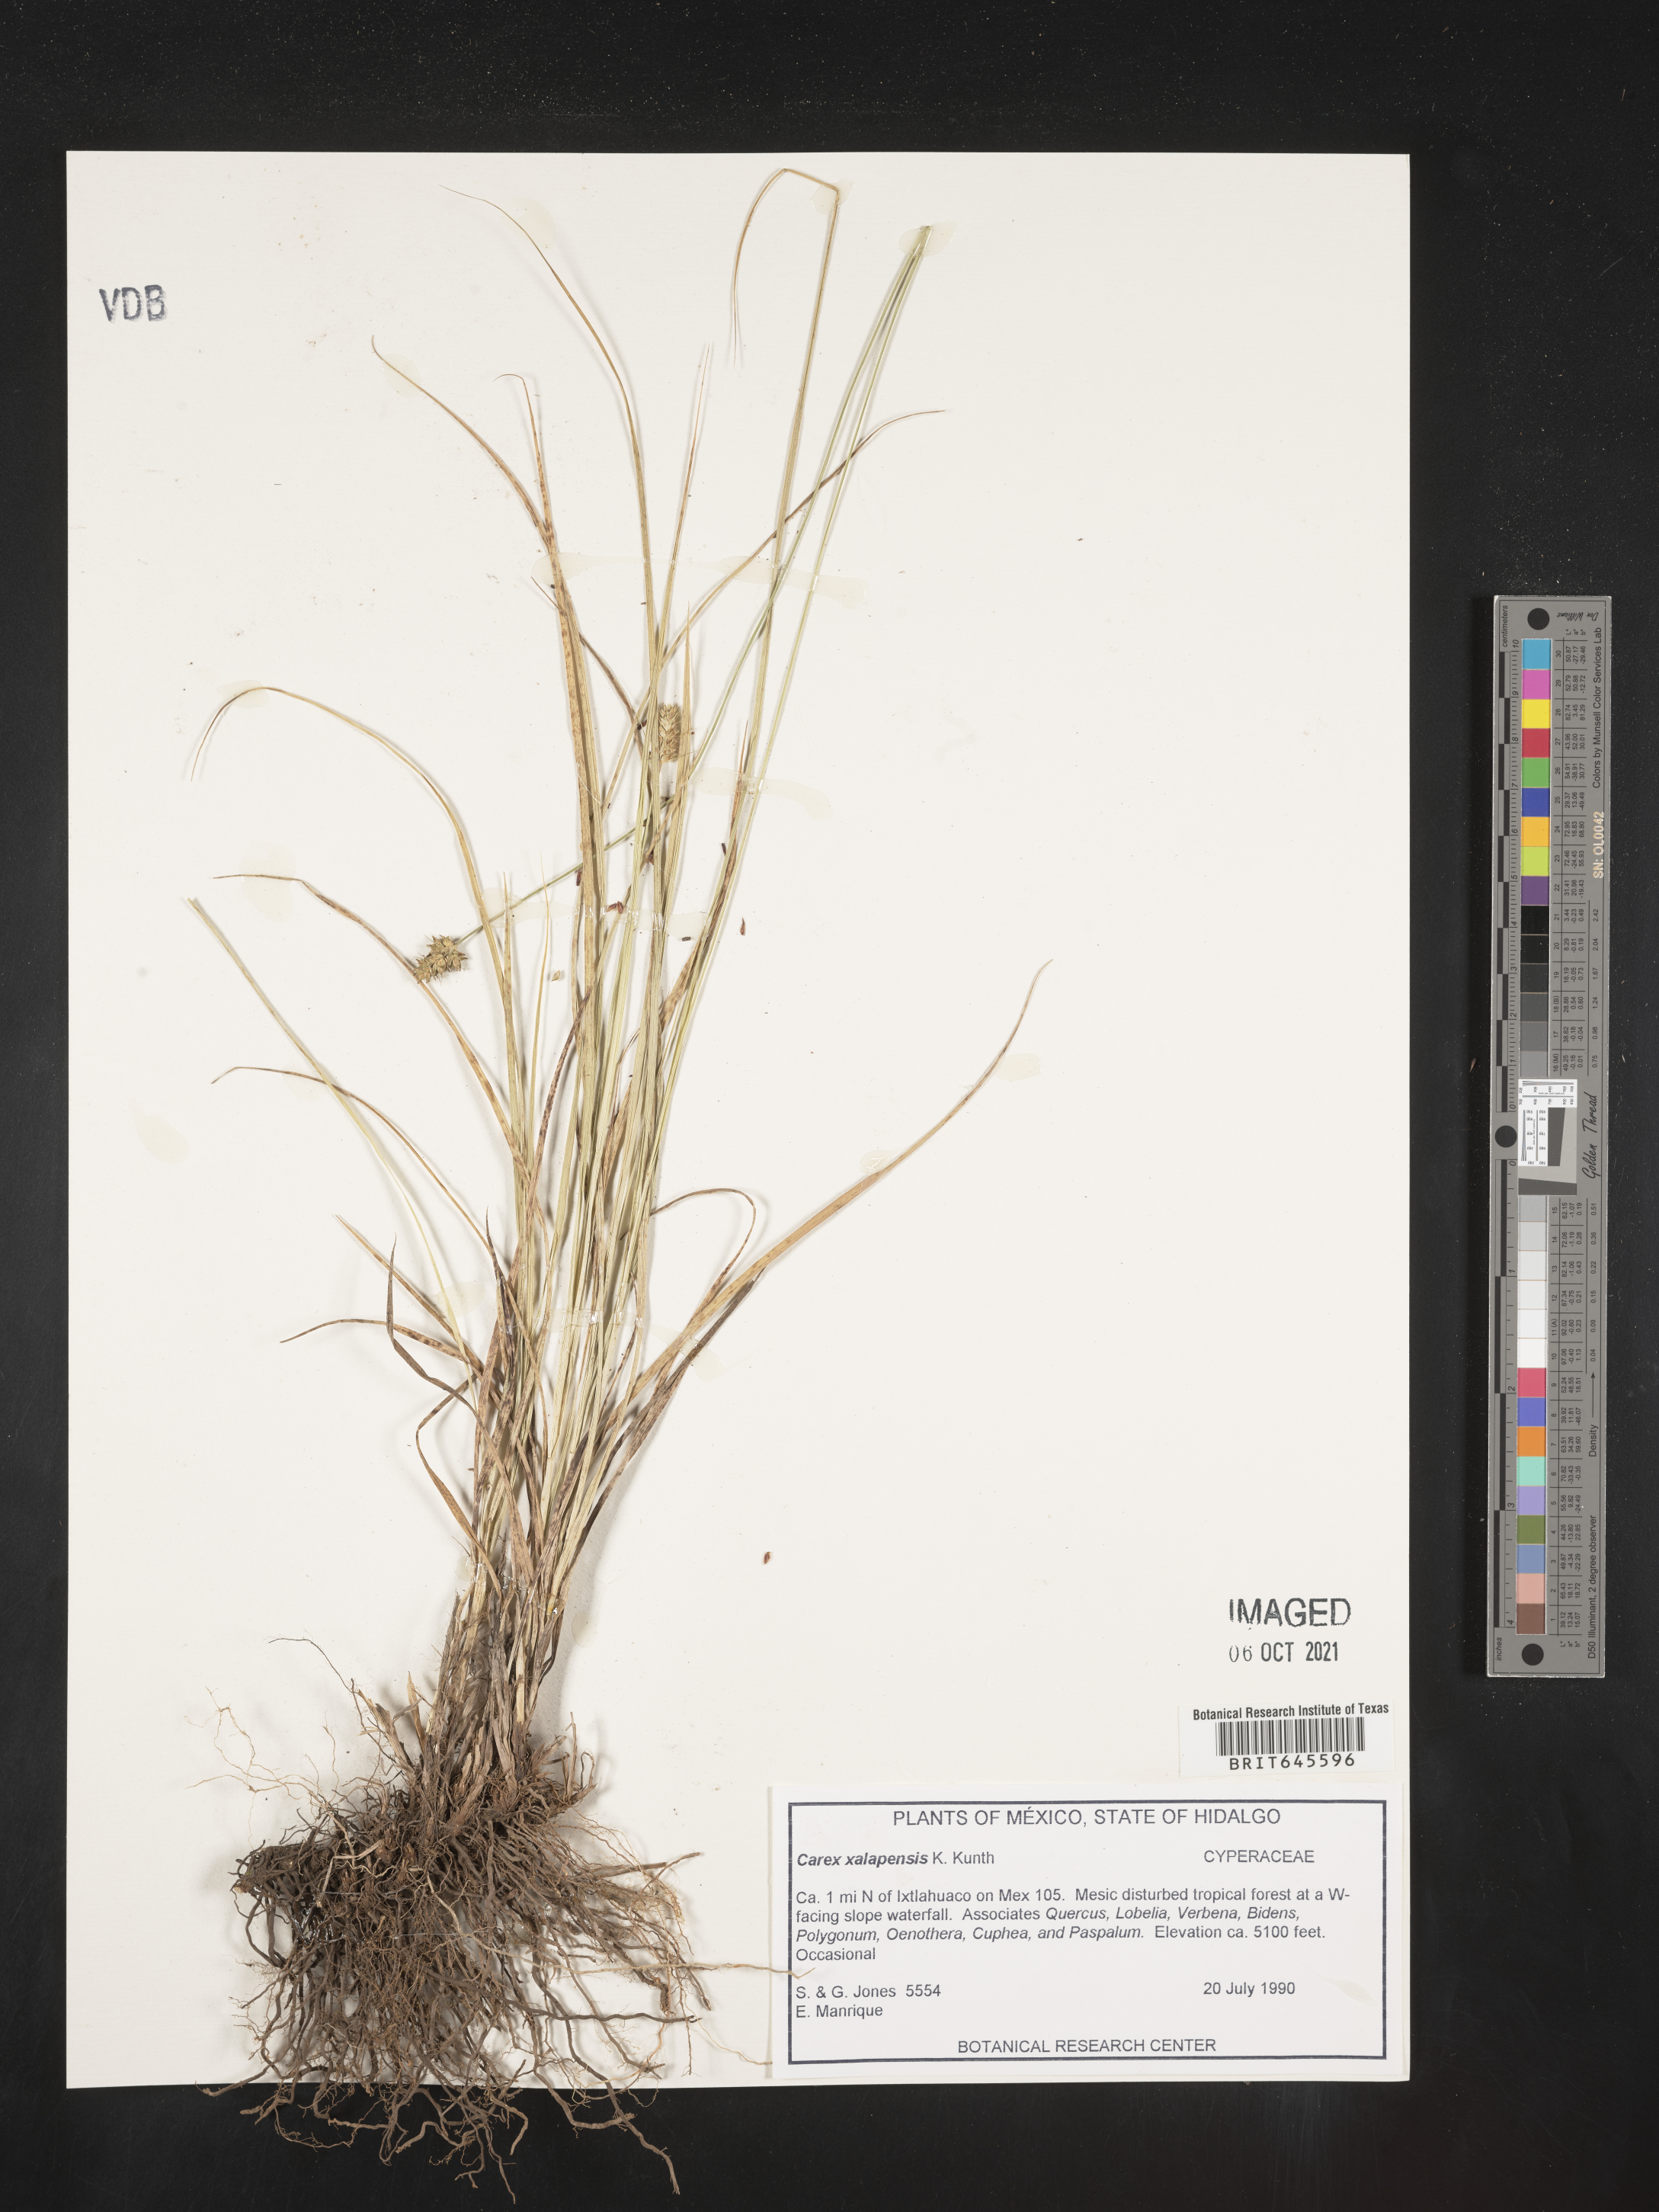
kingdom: Plantae
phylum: Tracheophyta
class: Liliopsida
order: Poales
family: Cyperaceae
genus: Carex
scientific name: Carex
